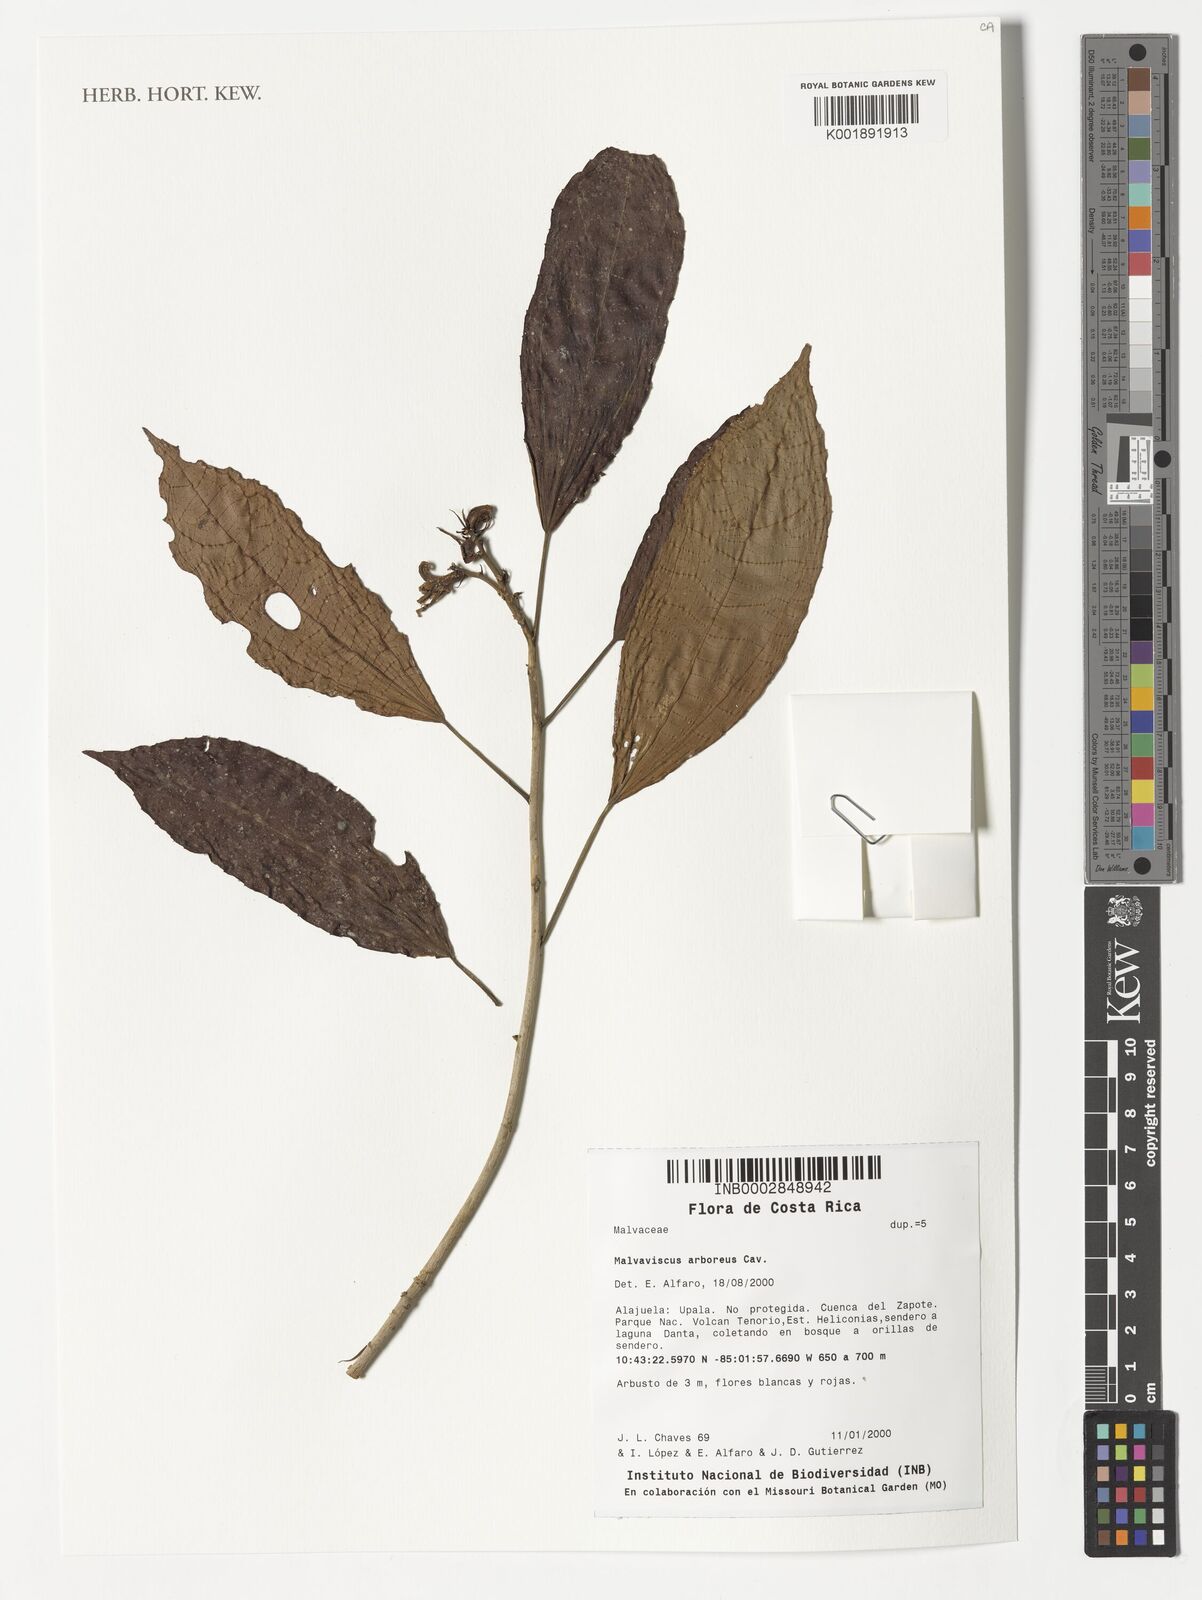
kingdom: Plantae
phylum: Tracheophyta
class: Magnoliopsida
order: Malvales
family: Malvaceae
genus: Malvaviscus
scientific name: Malvaviscus arboreus
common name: Wax mallow
